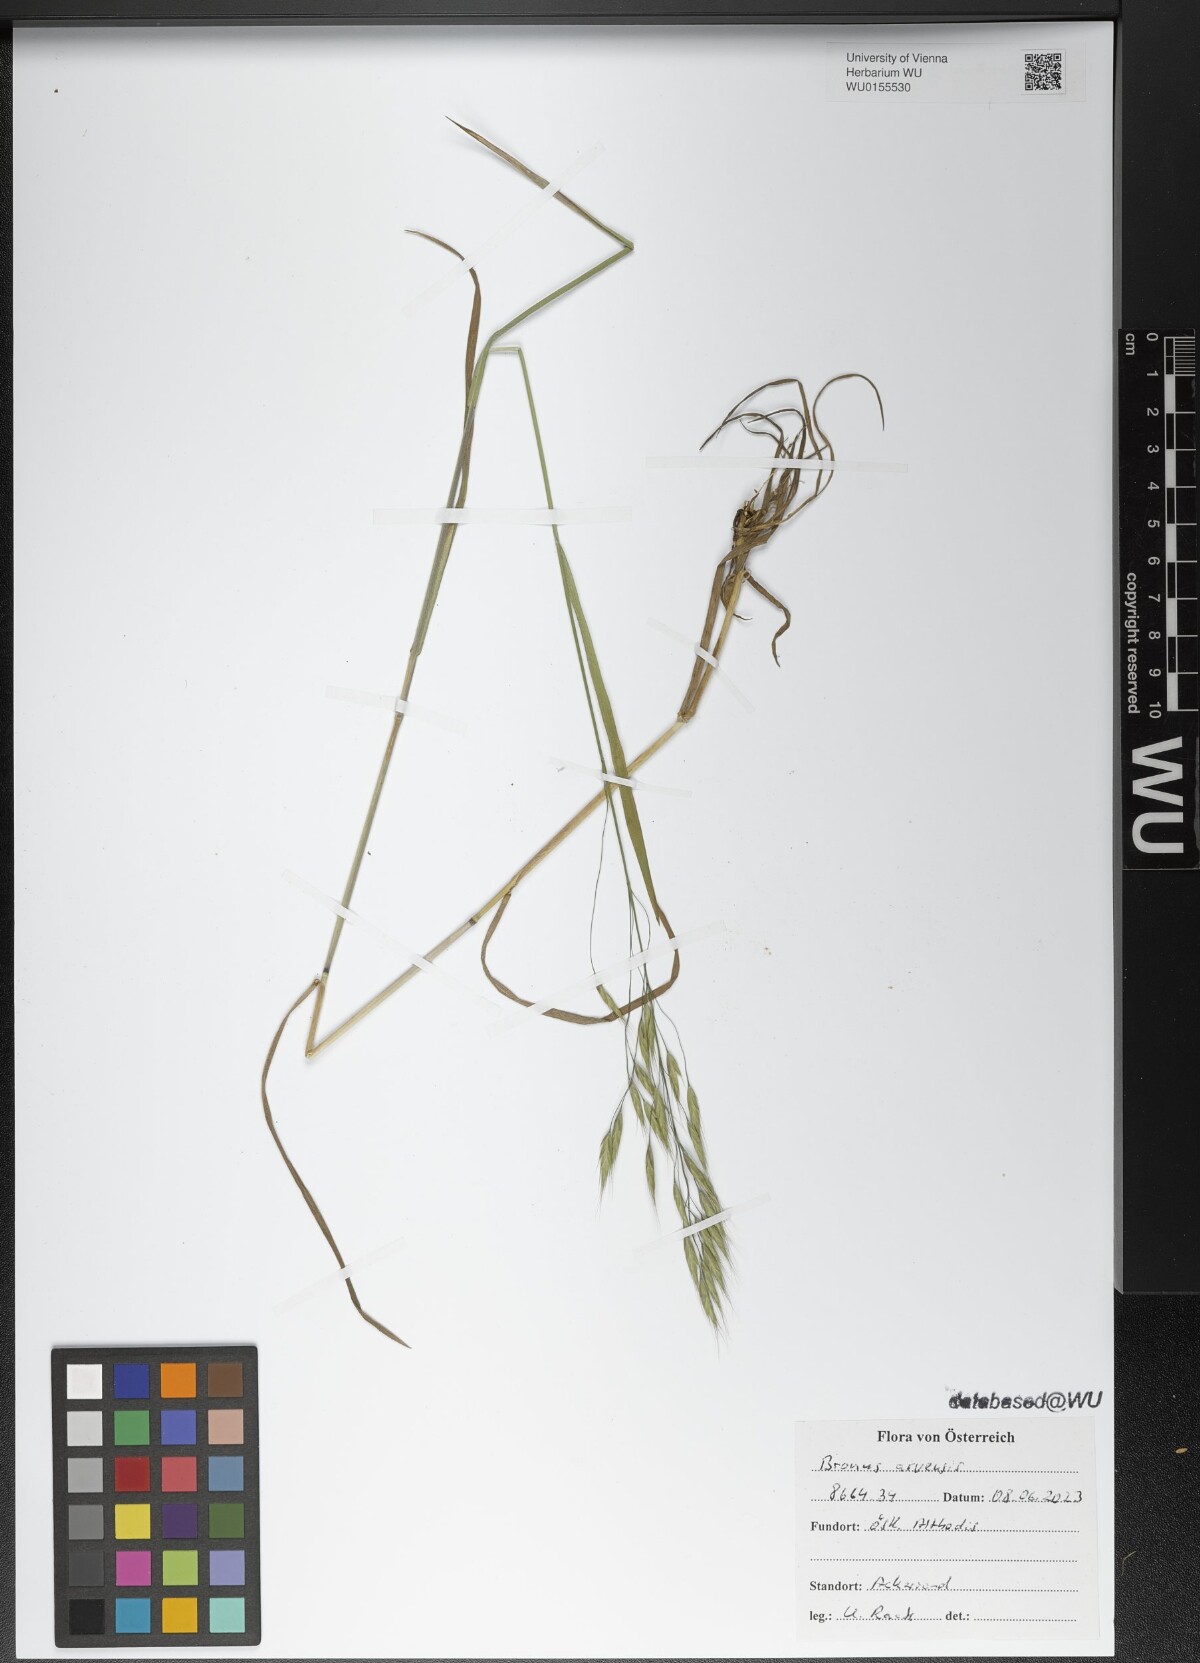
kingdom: Plantae
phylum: Tracheophyta
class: Liliopsida
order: Poales
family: Poaceae
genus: Bromus
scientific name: Bromus arvensis
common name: Field brome
